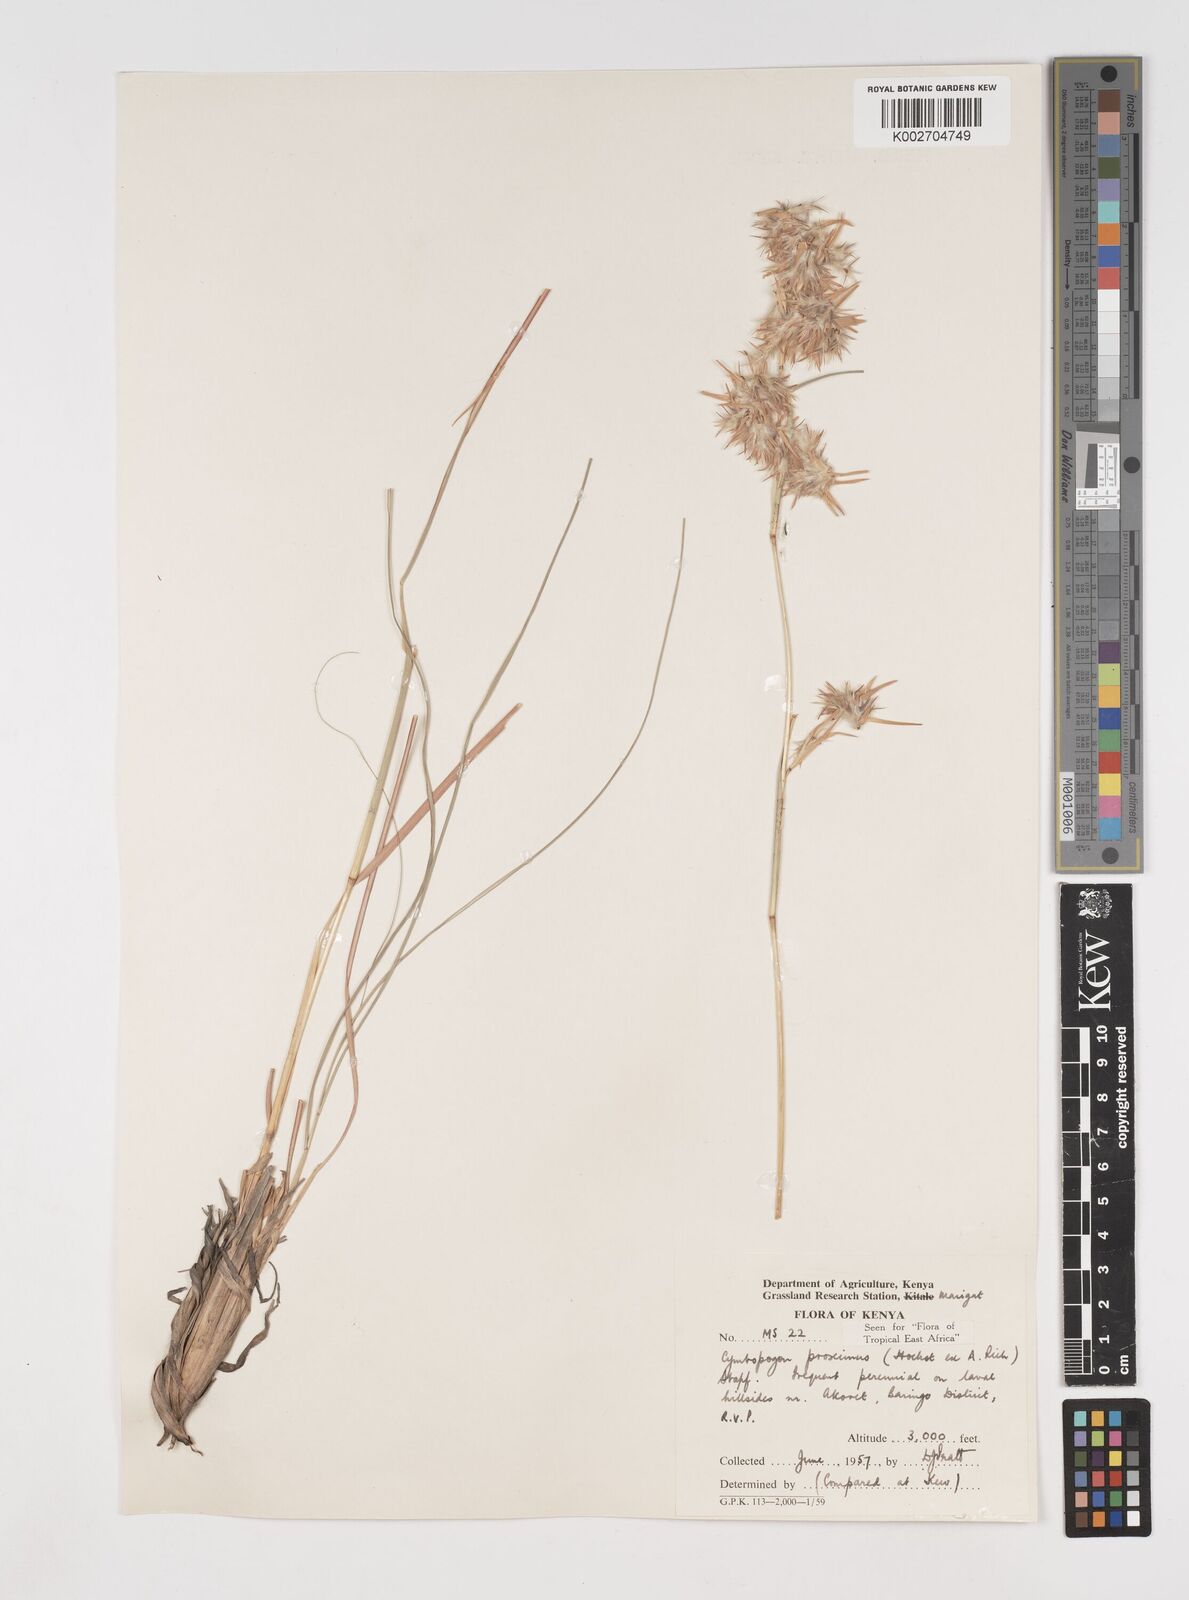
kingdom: Plantae
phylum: Tracheophyta
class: Liliopsida
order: Poales
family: Poaceae
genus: Cymbopogon
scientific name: Cymbopogon schoenanthus
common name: Geranium grass
